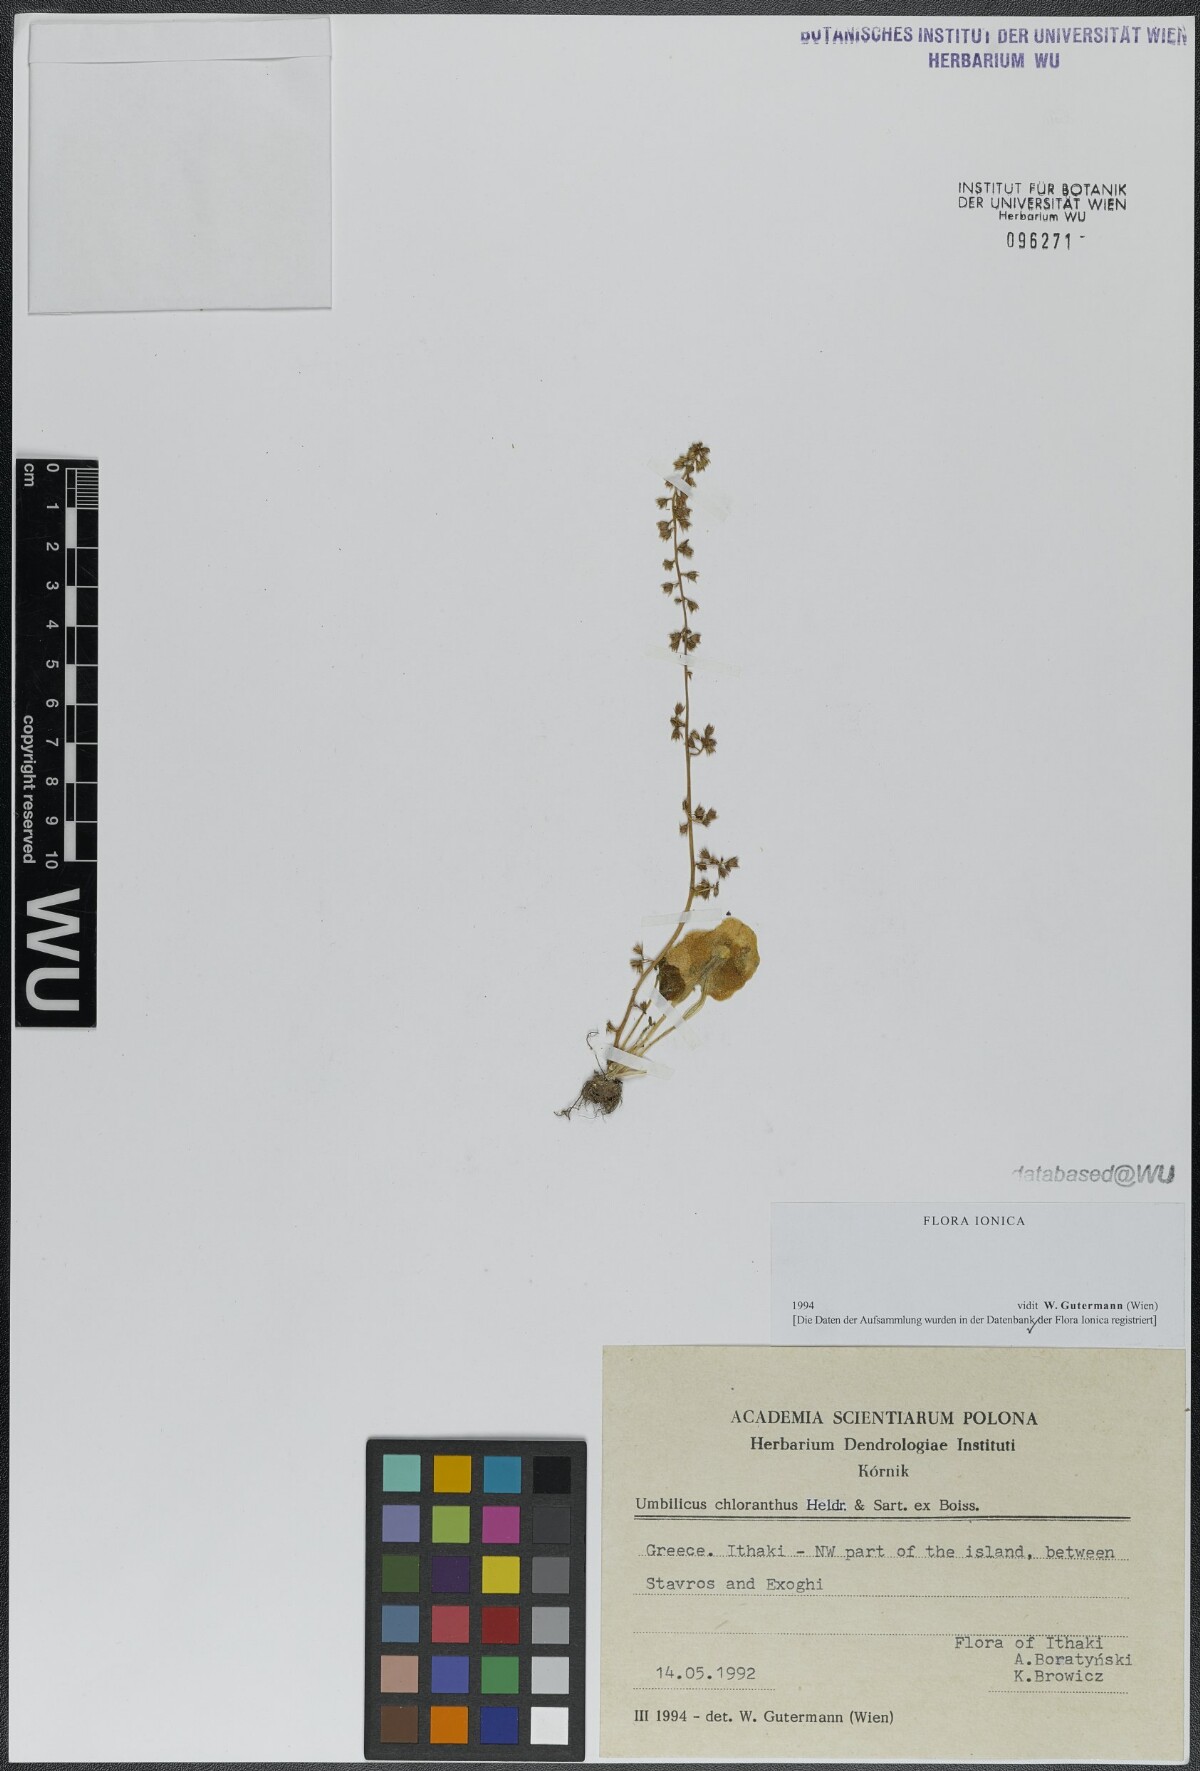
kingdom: Plantae
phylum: Tracheophyta
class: Magnoliopsida
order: Saxifragales
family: Crassulaceae
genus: Umbilicus
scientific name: Umbilicus chloranthus
